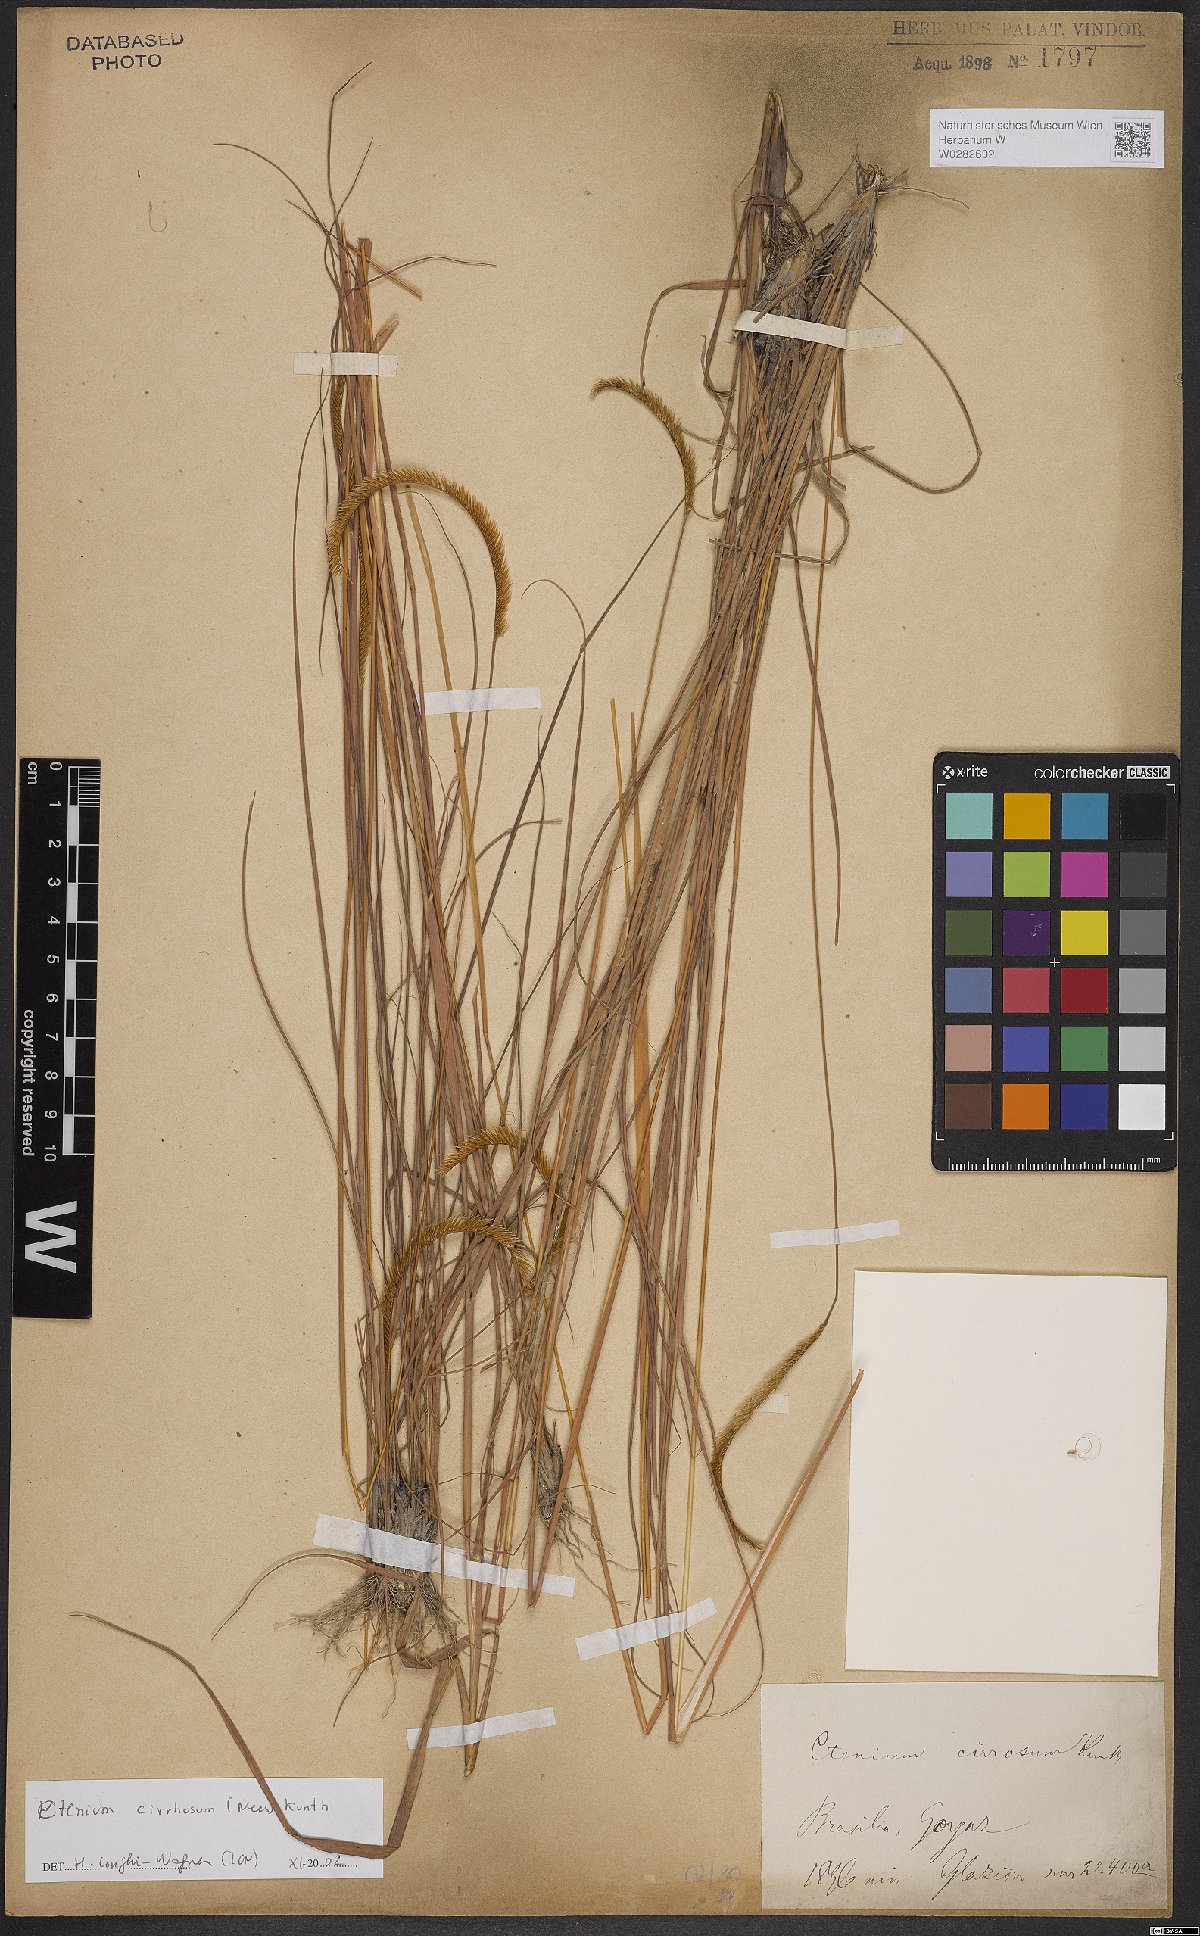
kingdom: Plantae
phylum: Tracheophyta
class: Liliopsida
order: Poales
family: Poaceae
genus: Ctenium
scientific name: Ctenium cirrhosum
